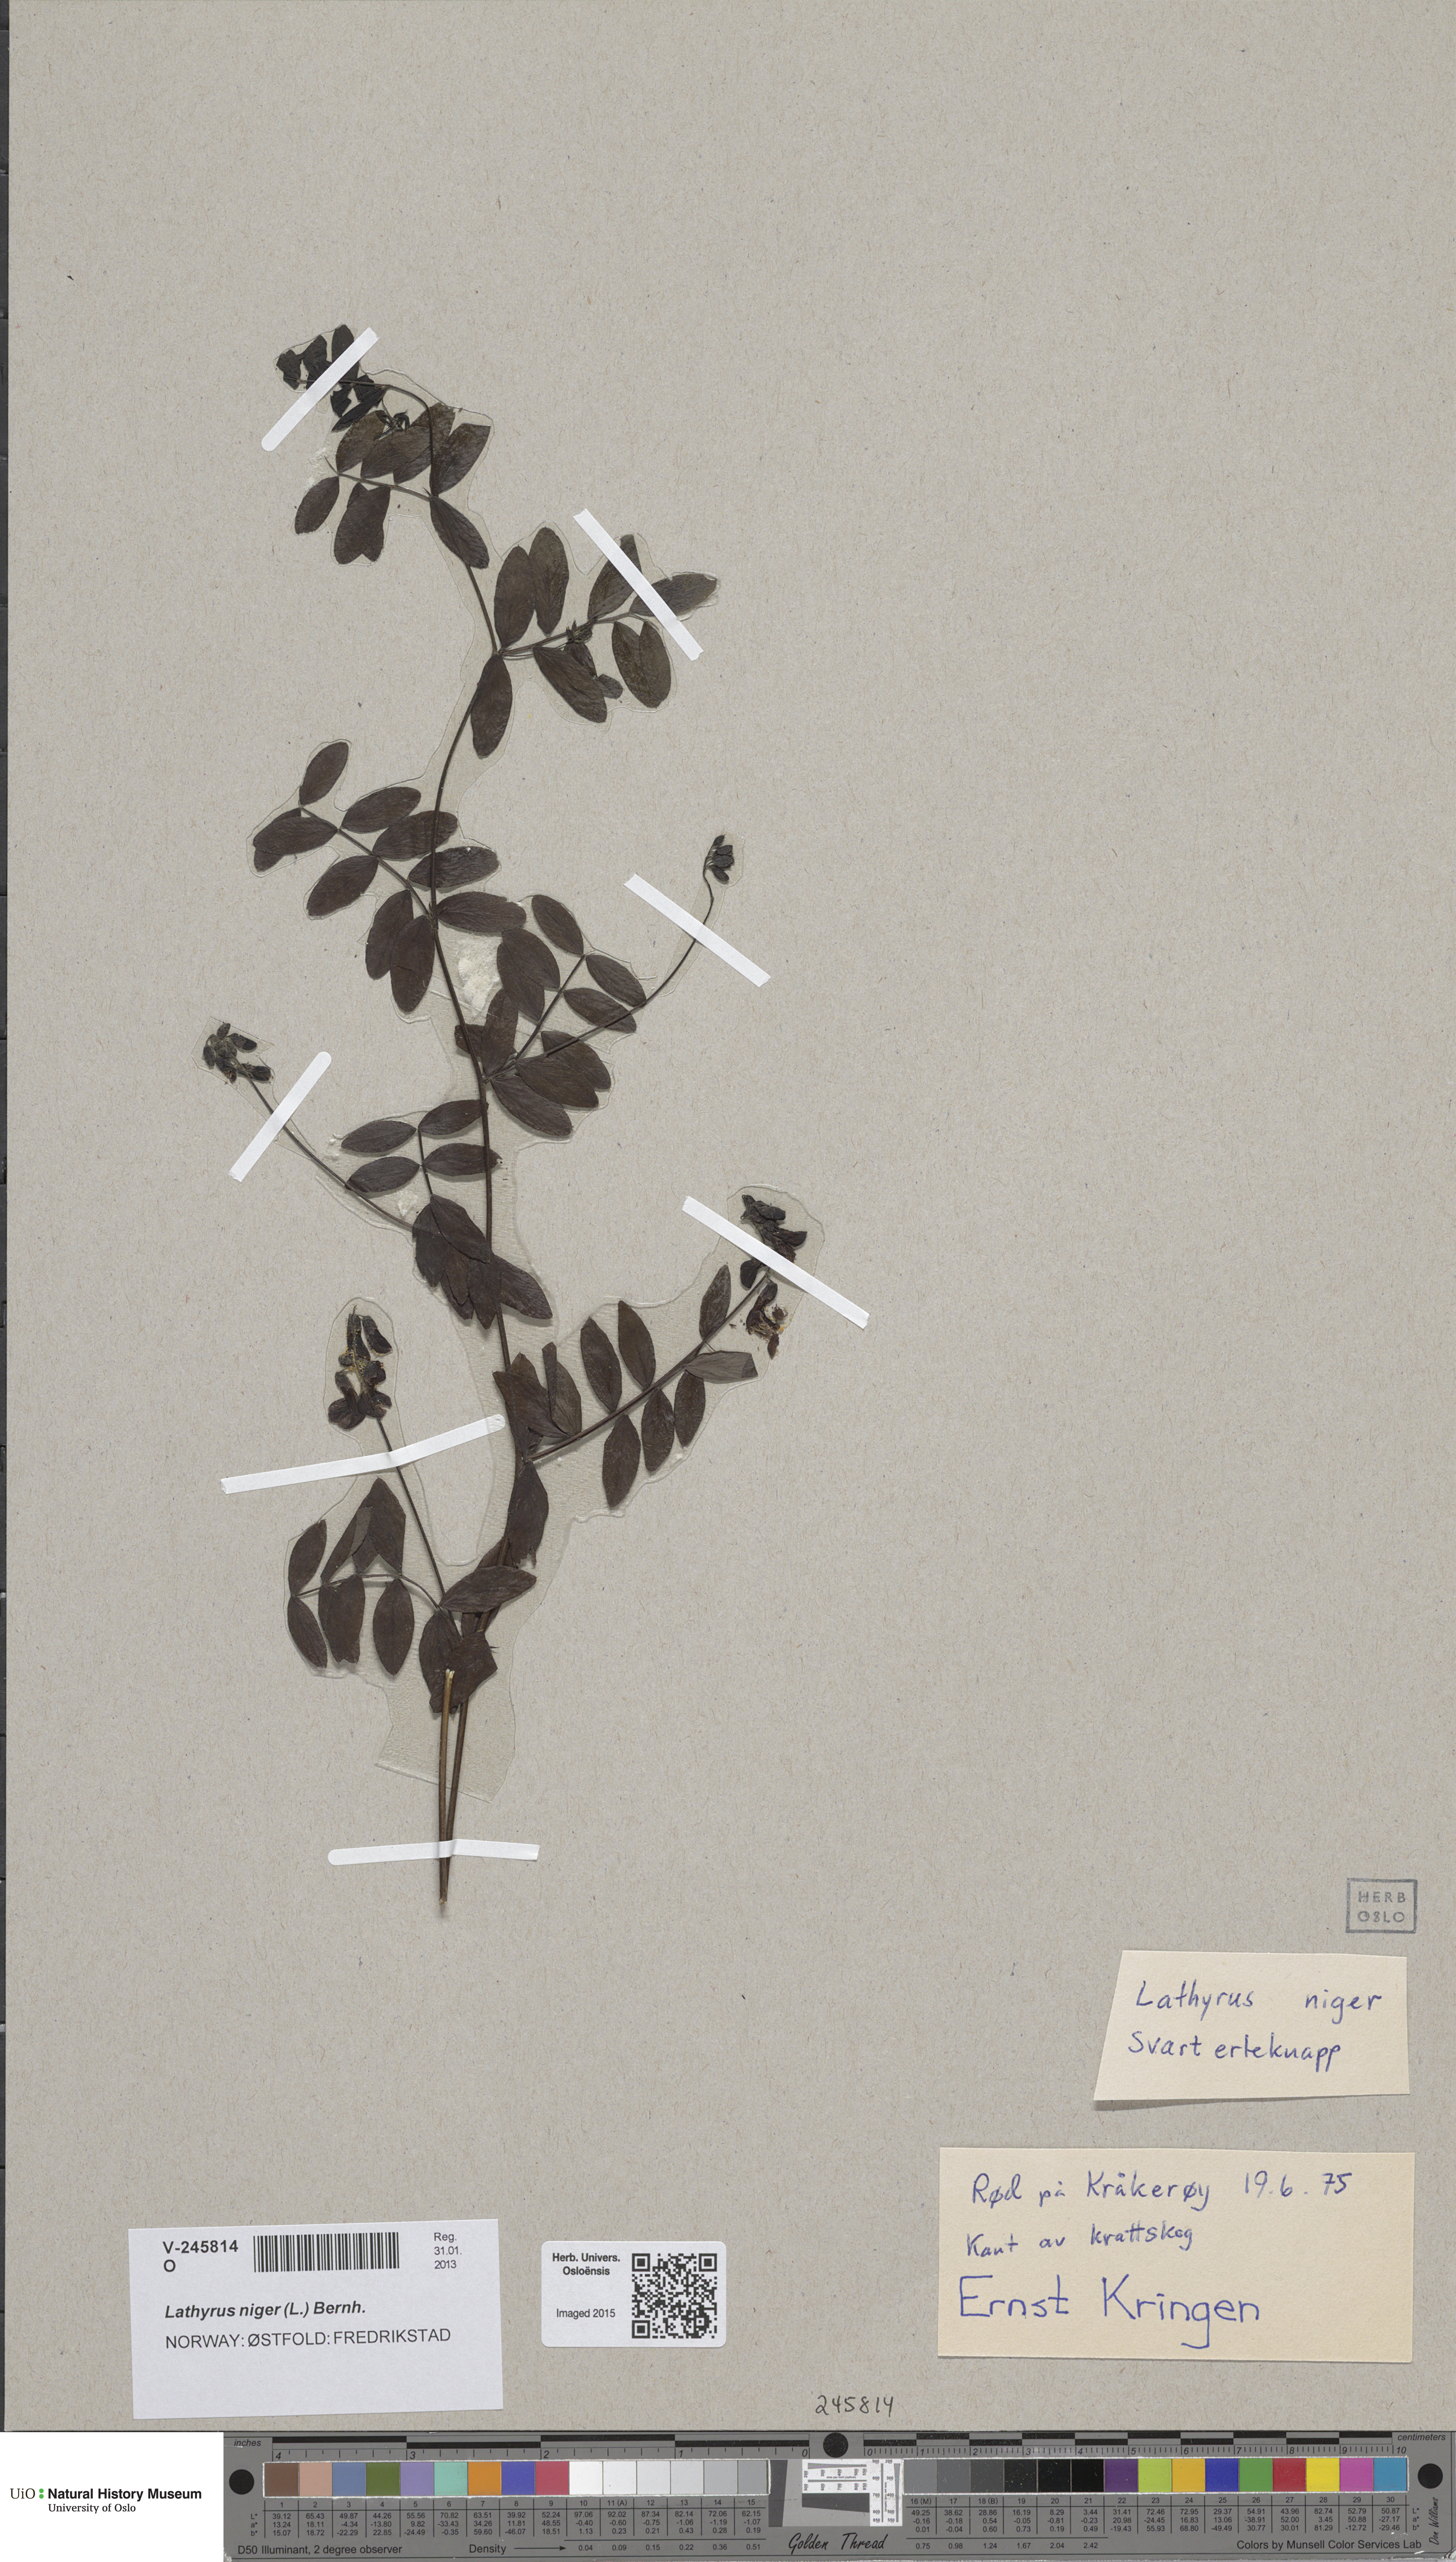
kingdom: Plantae
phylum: Tracheophyta
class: Magnoliopsida
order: Fabales
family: Fabaceae
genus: Lathyrus
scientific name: Lathyrus niger
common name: Black pea
